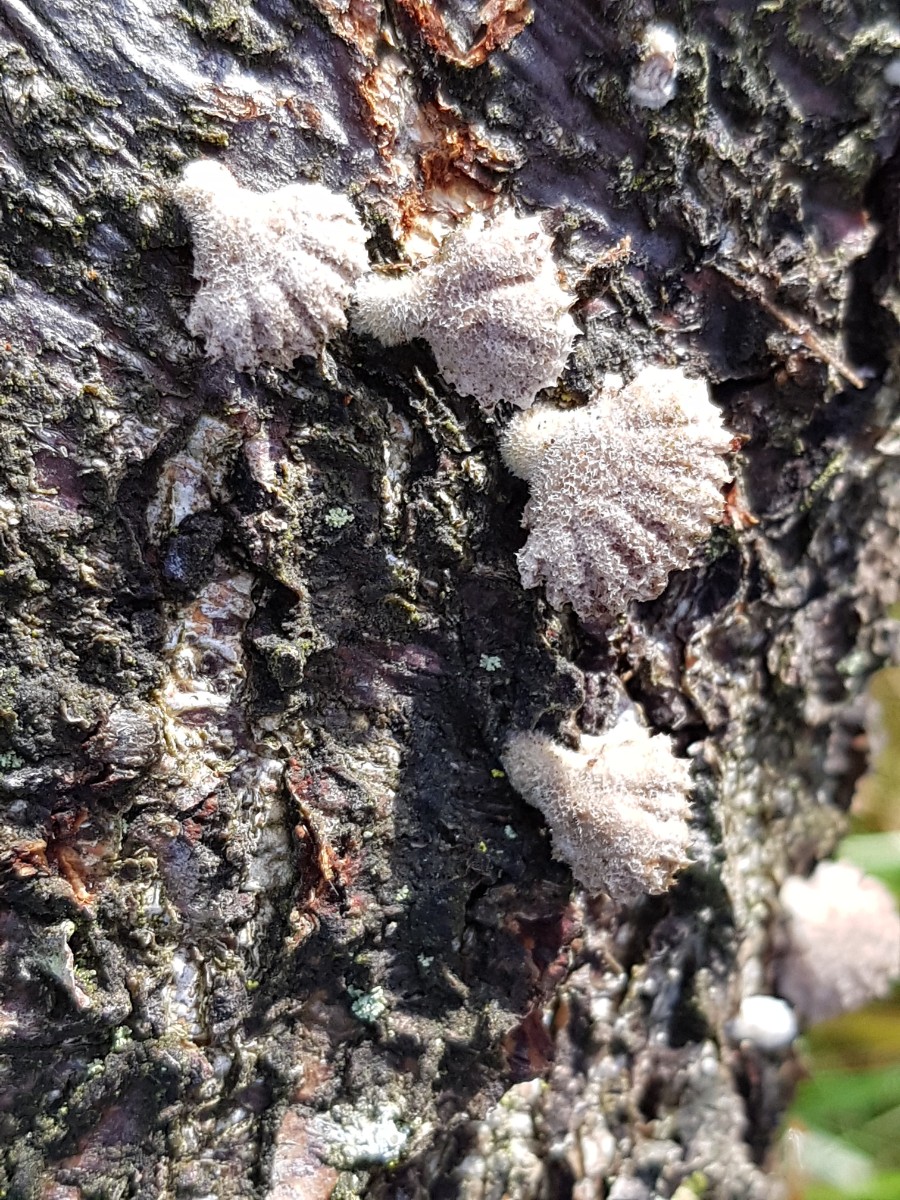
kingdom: Fungi
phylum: Basidiomycota
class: Agaricomycetes
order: Agaricales
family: Schizophyllaceae
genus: Schizophyllum
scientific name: Schizophyllum commune
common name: kløvblad
